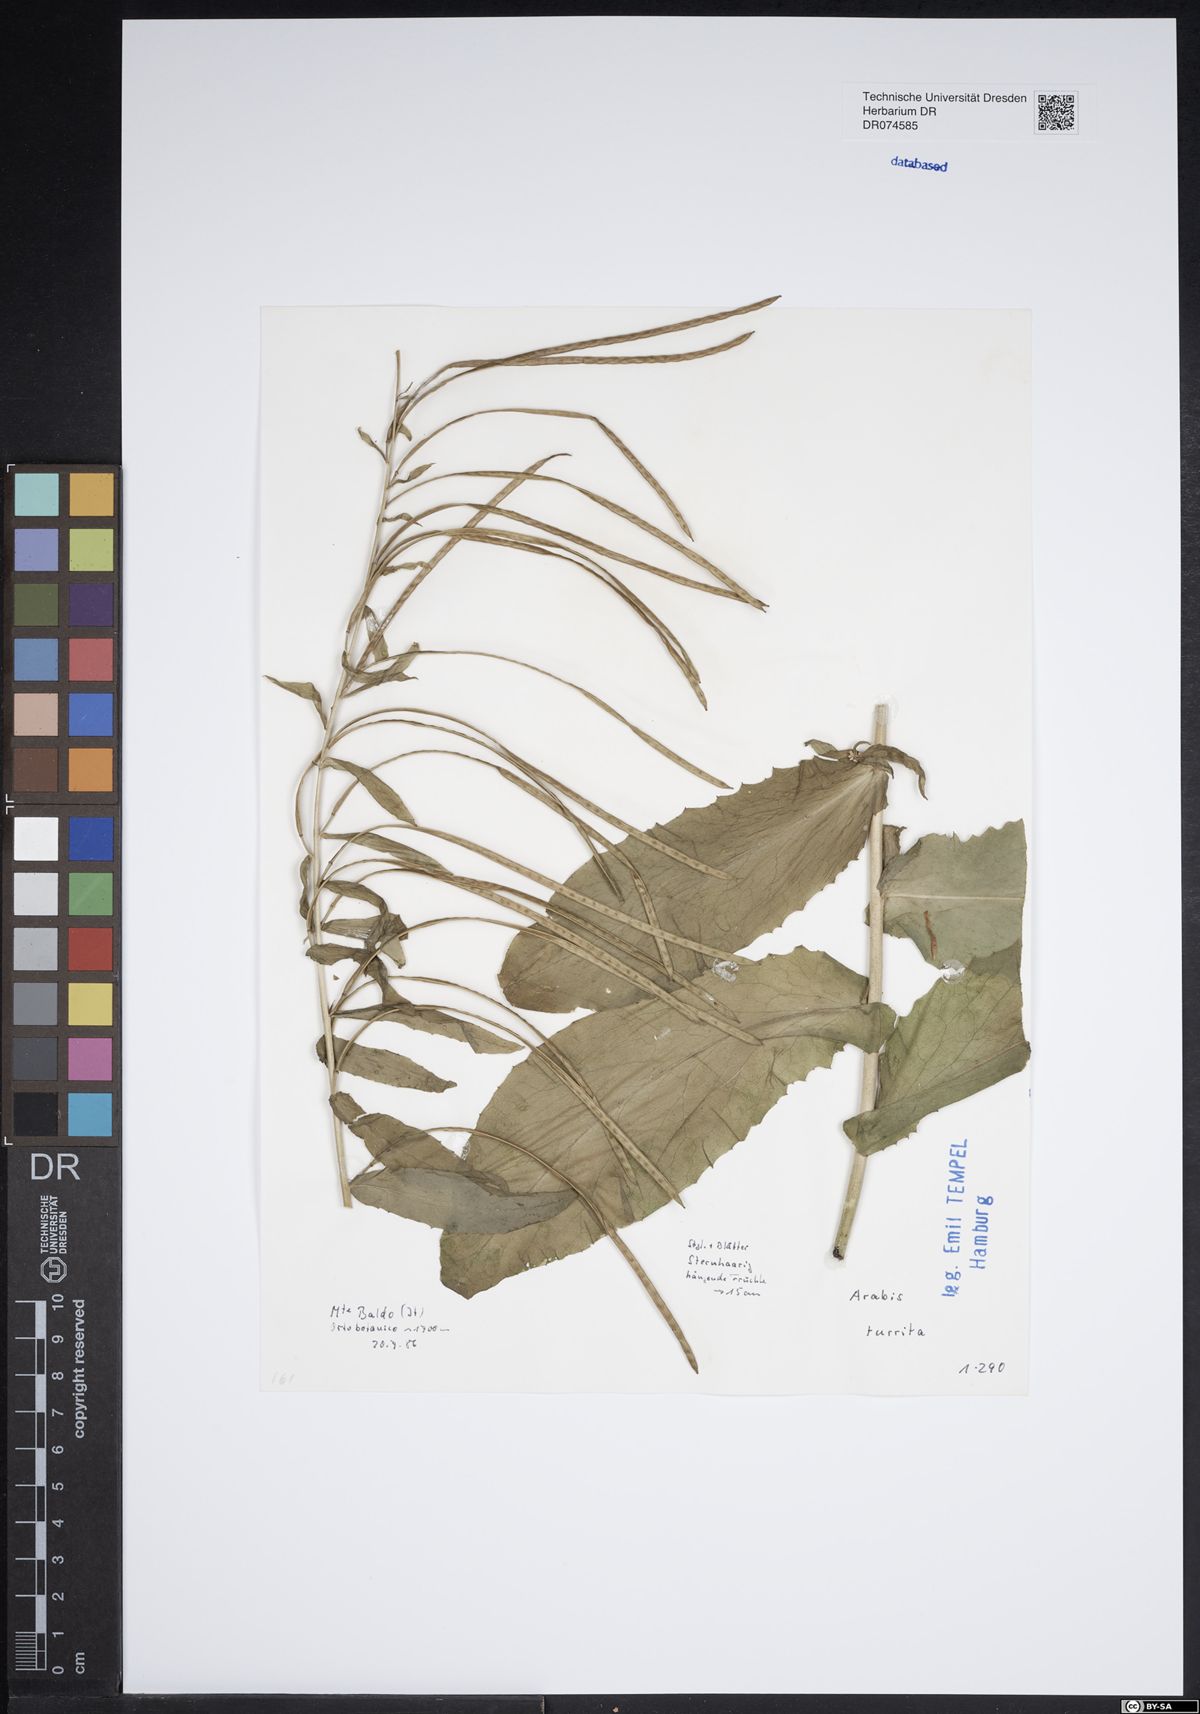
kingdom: Plantae
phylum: Tracheophyta
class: Magnoliopsida
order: Brassicales
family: Brassicaceae
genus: Pseudoturritis
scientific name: Pseudoturritis turrita
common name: Tower cress
